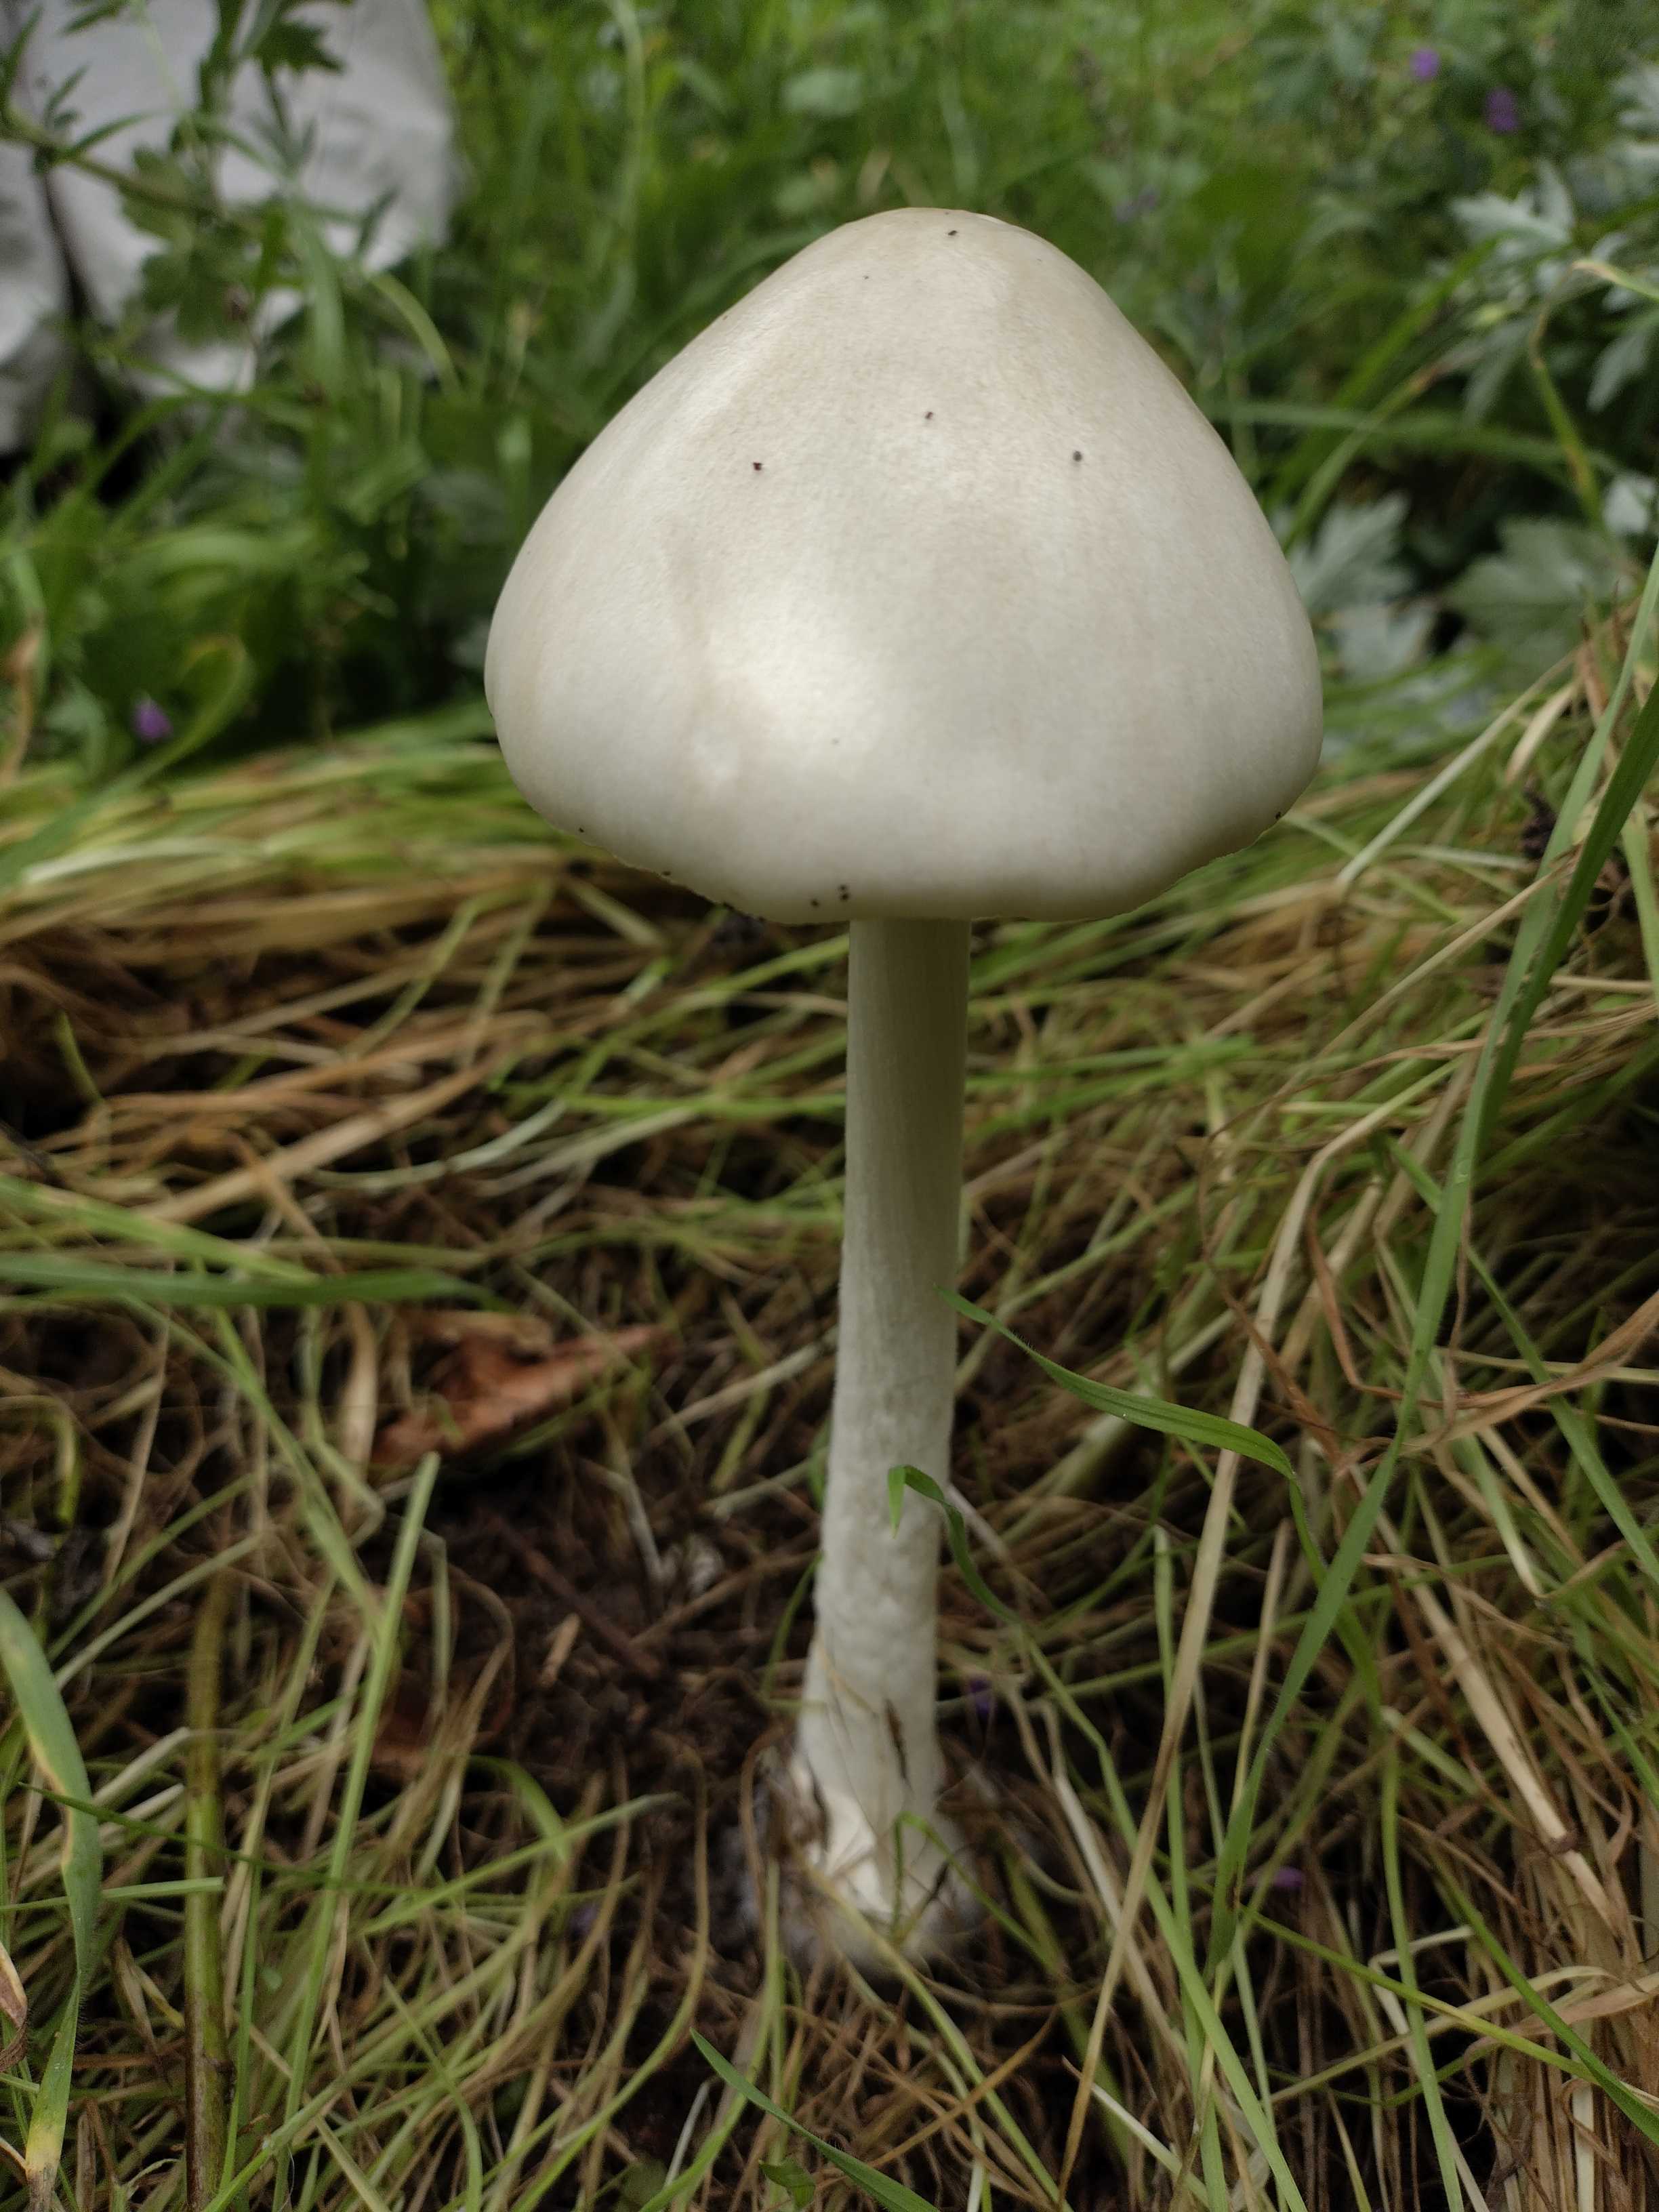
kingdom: Fungi
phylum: Basidiomycota
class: Agaricomycetes
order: Agaricales
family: Pluteaceae
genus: Volvopluteus
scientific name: Volvopluteus gloiocephalus
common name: høj posesvamp
